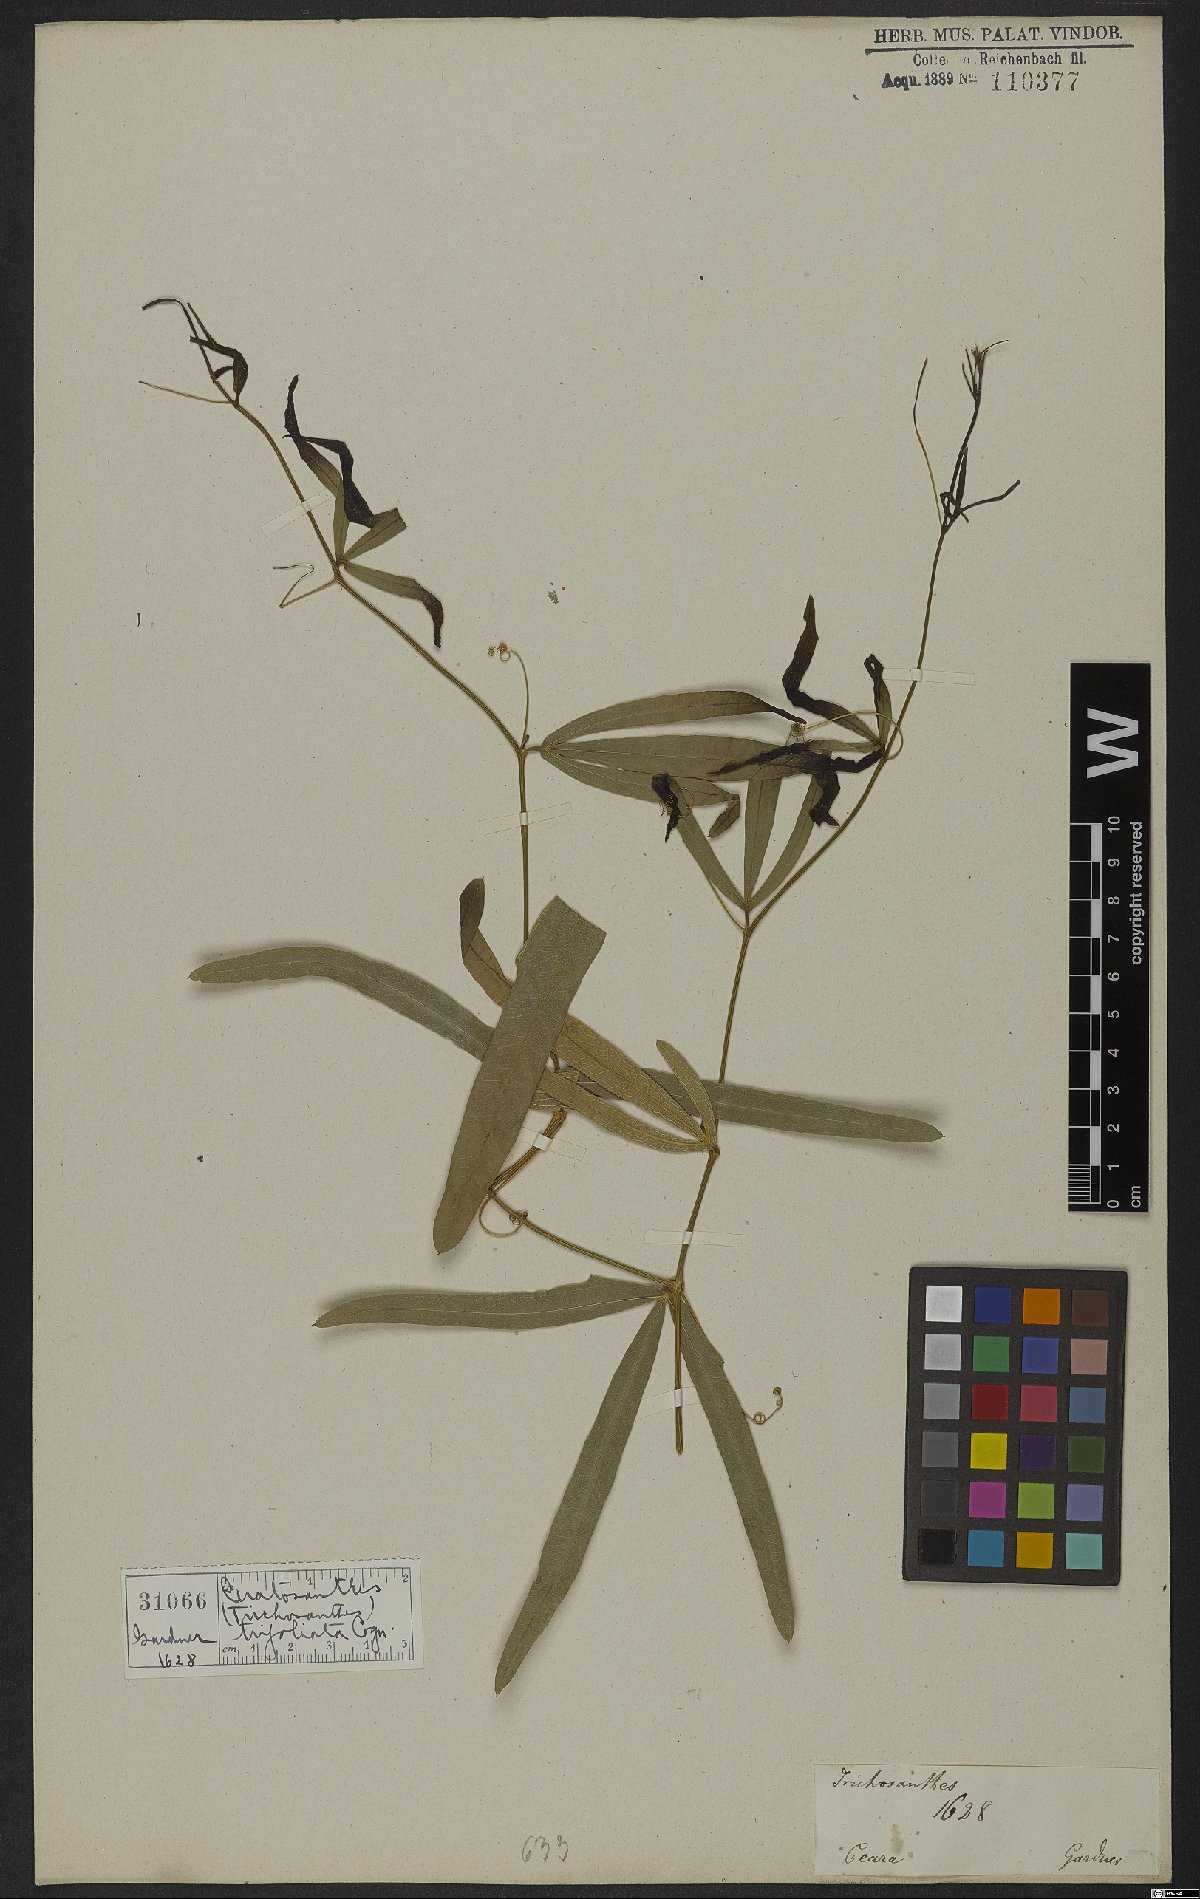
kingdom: Plantae
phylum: Tracheophyta
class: Magnoliopsida
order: Cucurbitales
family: Cucurbitaceae
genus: Ceratosanthes
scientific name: Ceratosanthes trifoliata
